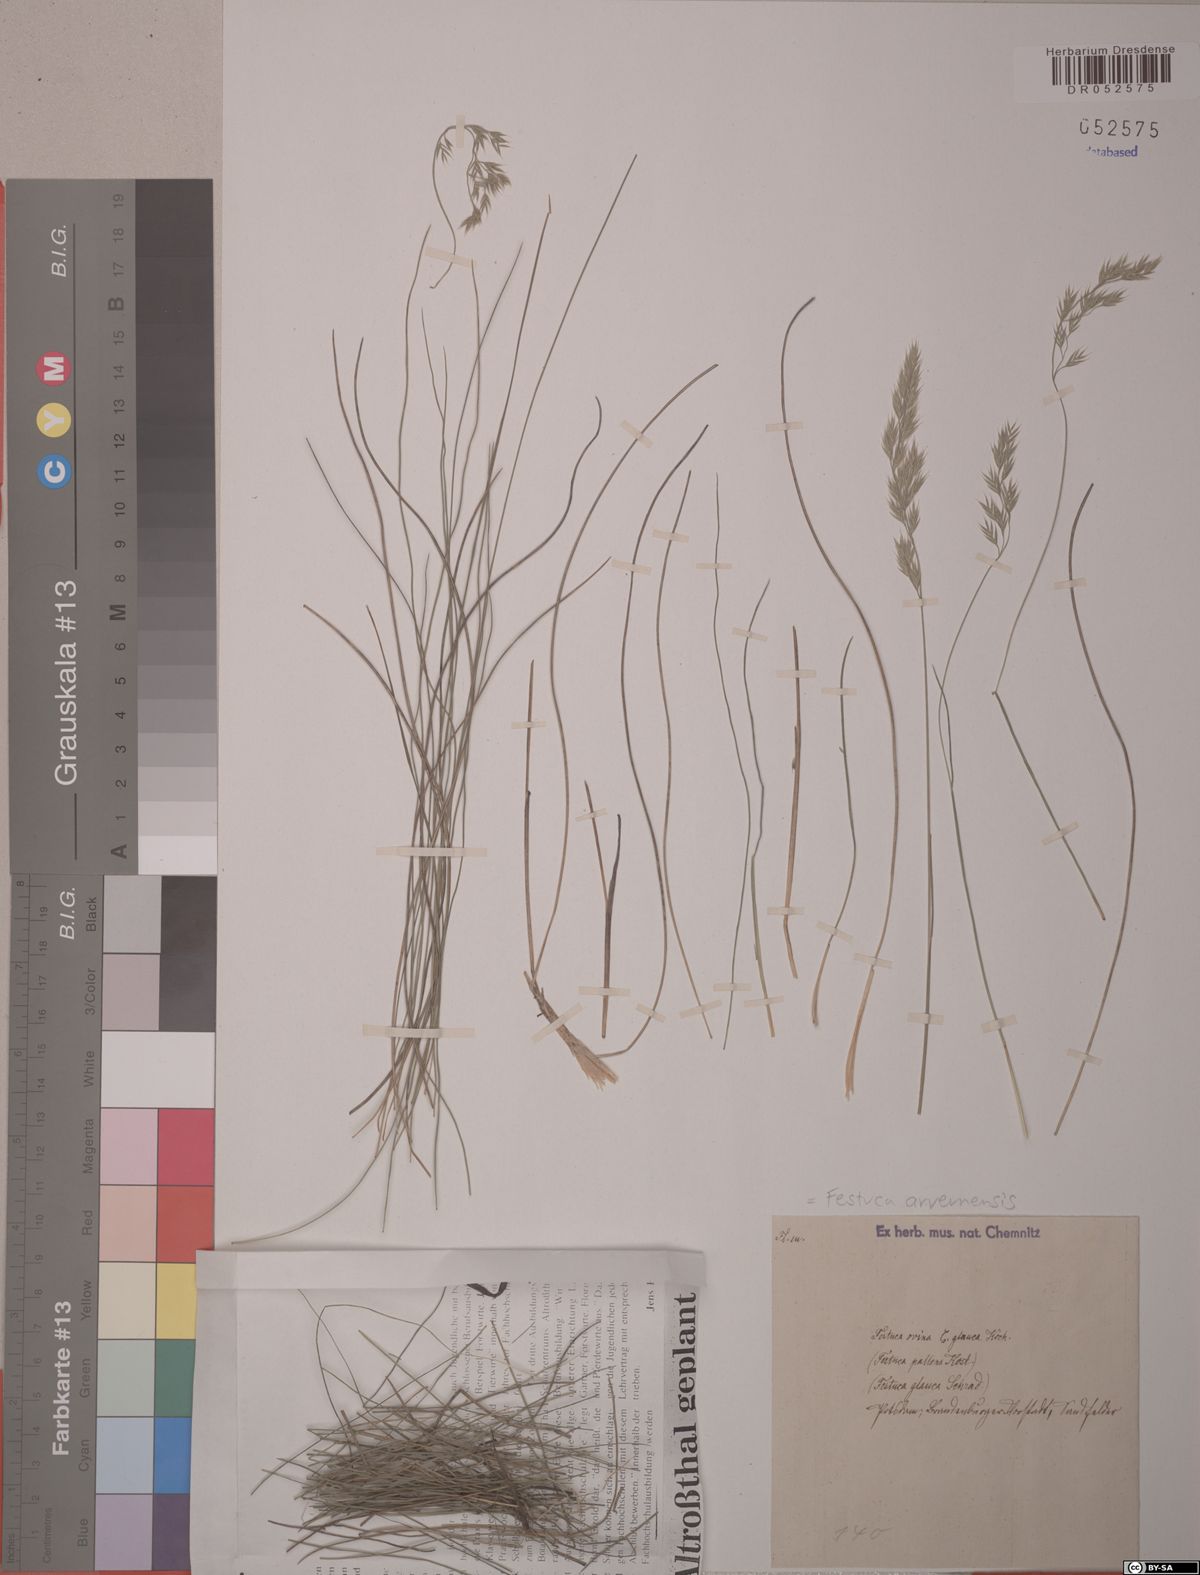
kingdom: Plantae
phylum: Tracheophyta
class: Liliopsida
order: Poales
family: Poaceae
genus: Festuca
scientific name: Festuca arvernensis
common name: Field fescue
